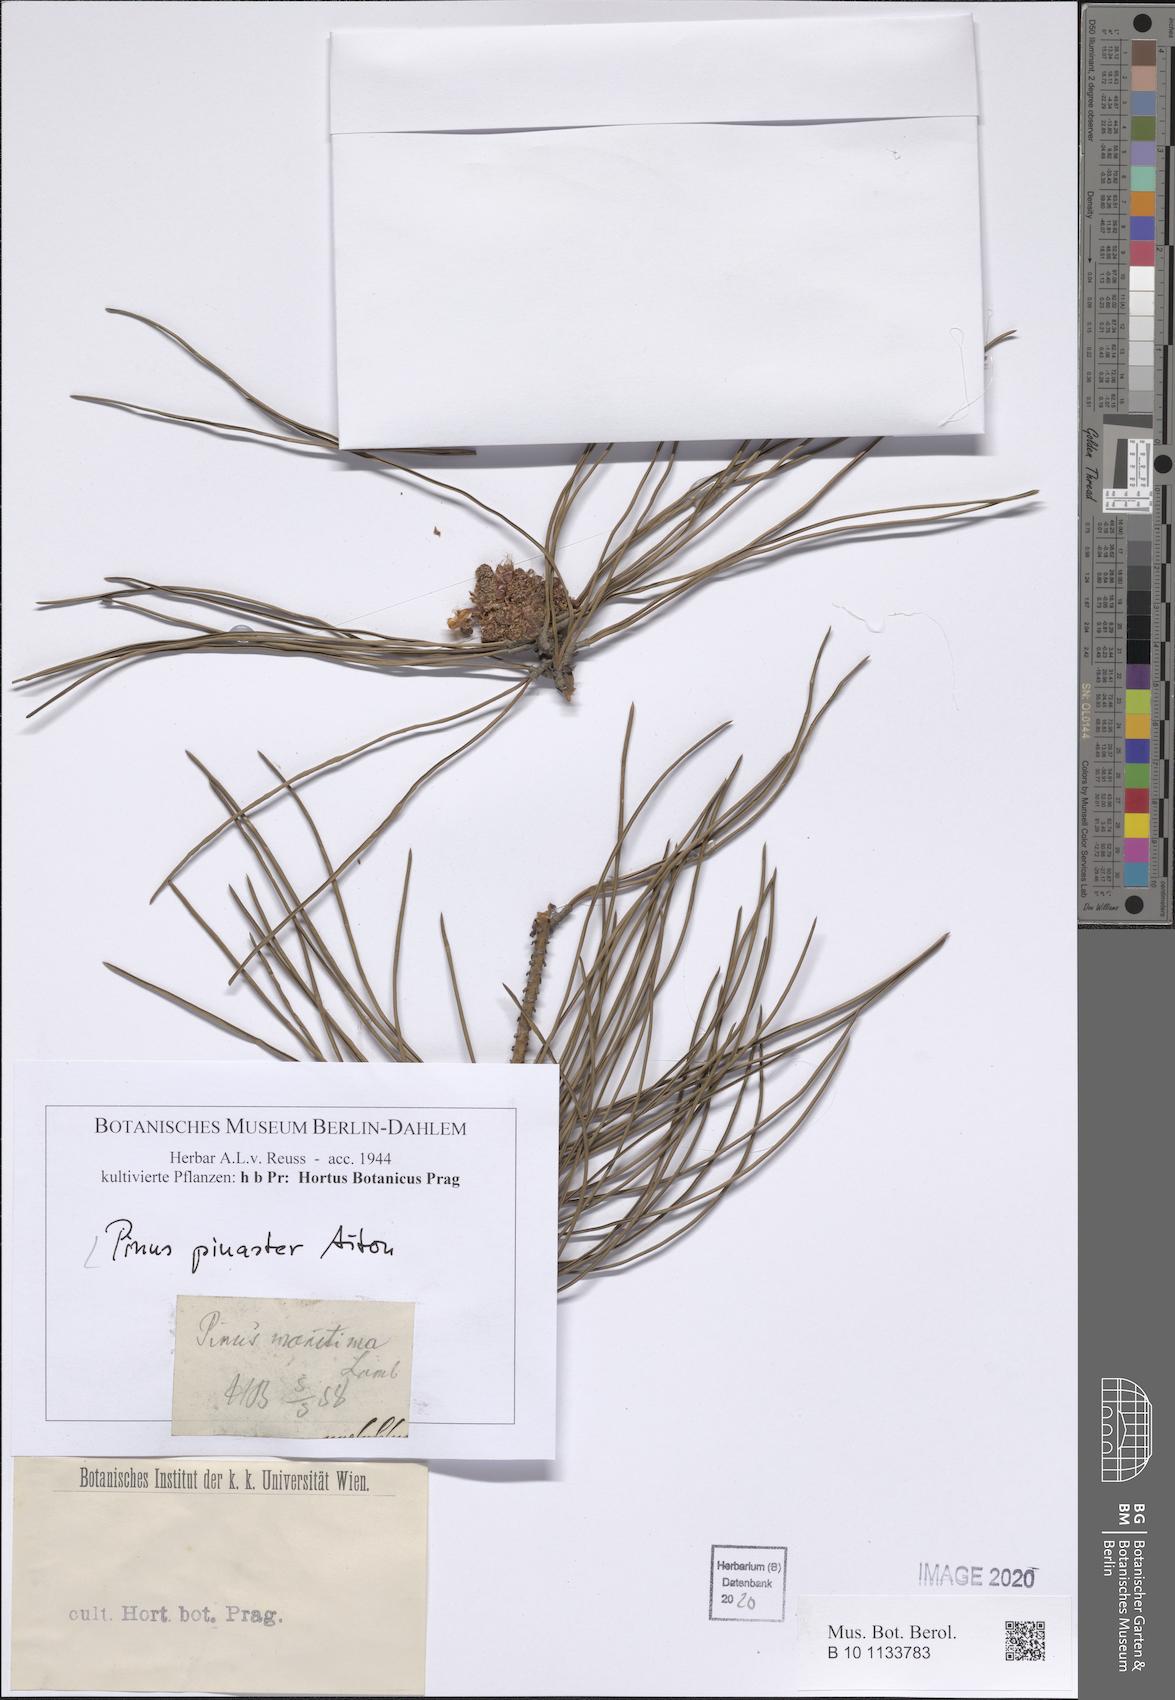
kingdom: Plantae
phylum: Tracheophyta
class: Pinopsida
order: Pinales
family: Pinaceae
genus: Pinus
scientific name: Pinus pinaster
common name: Maritime pine
